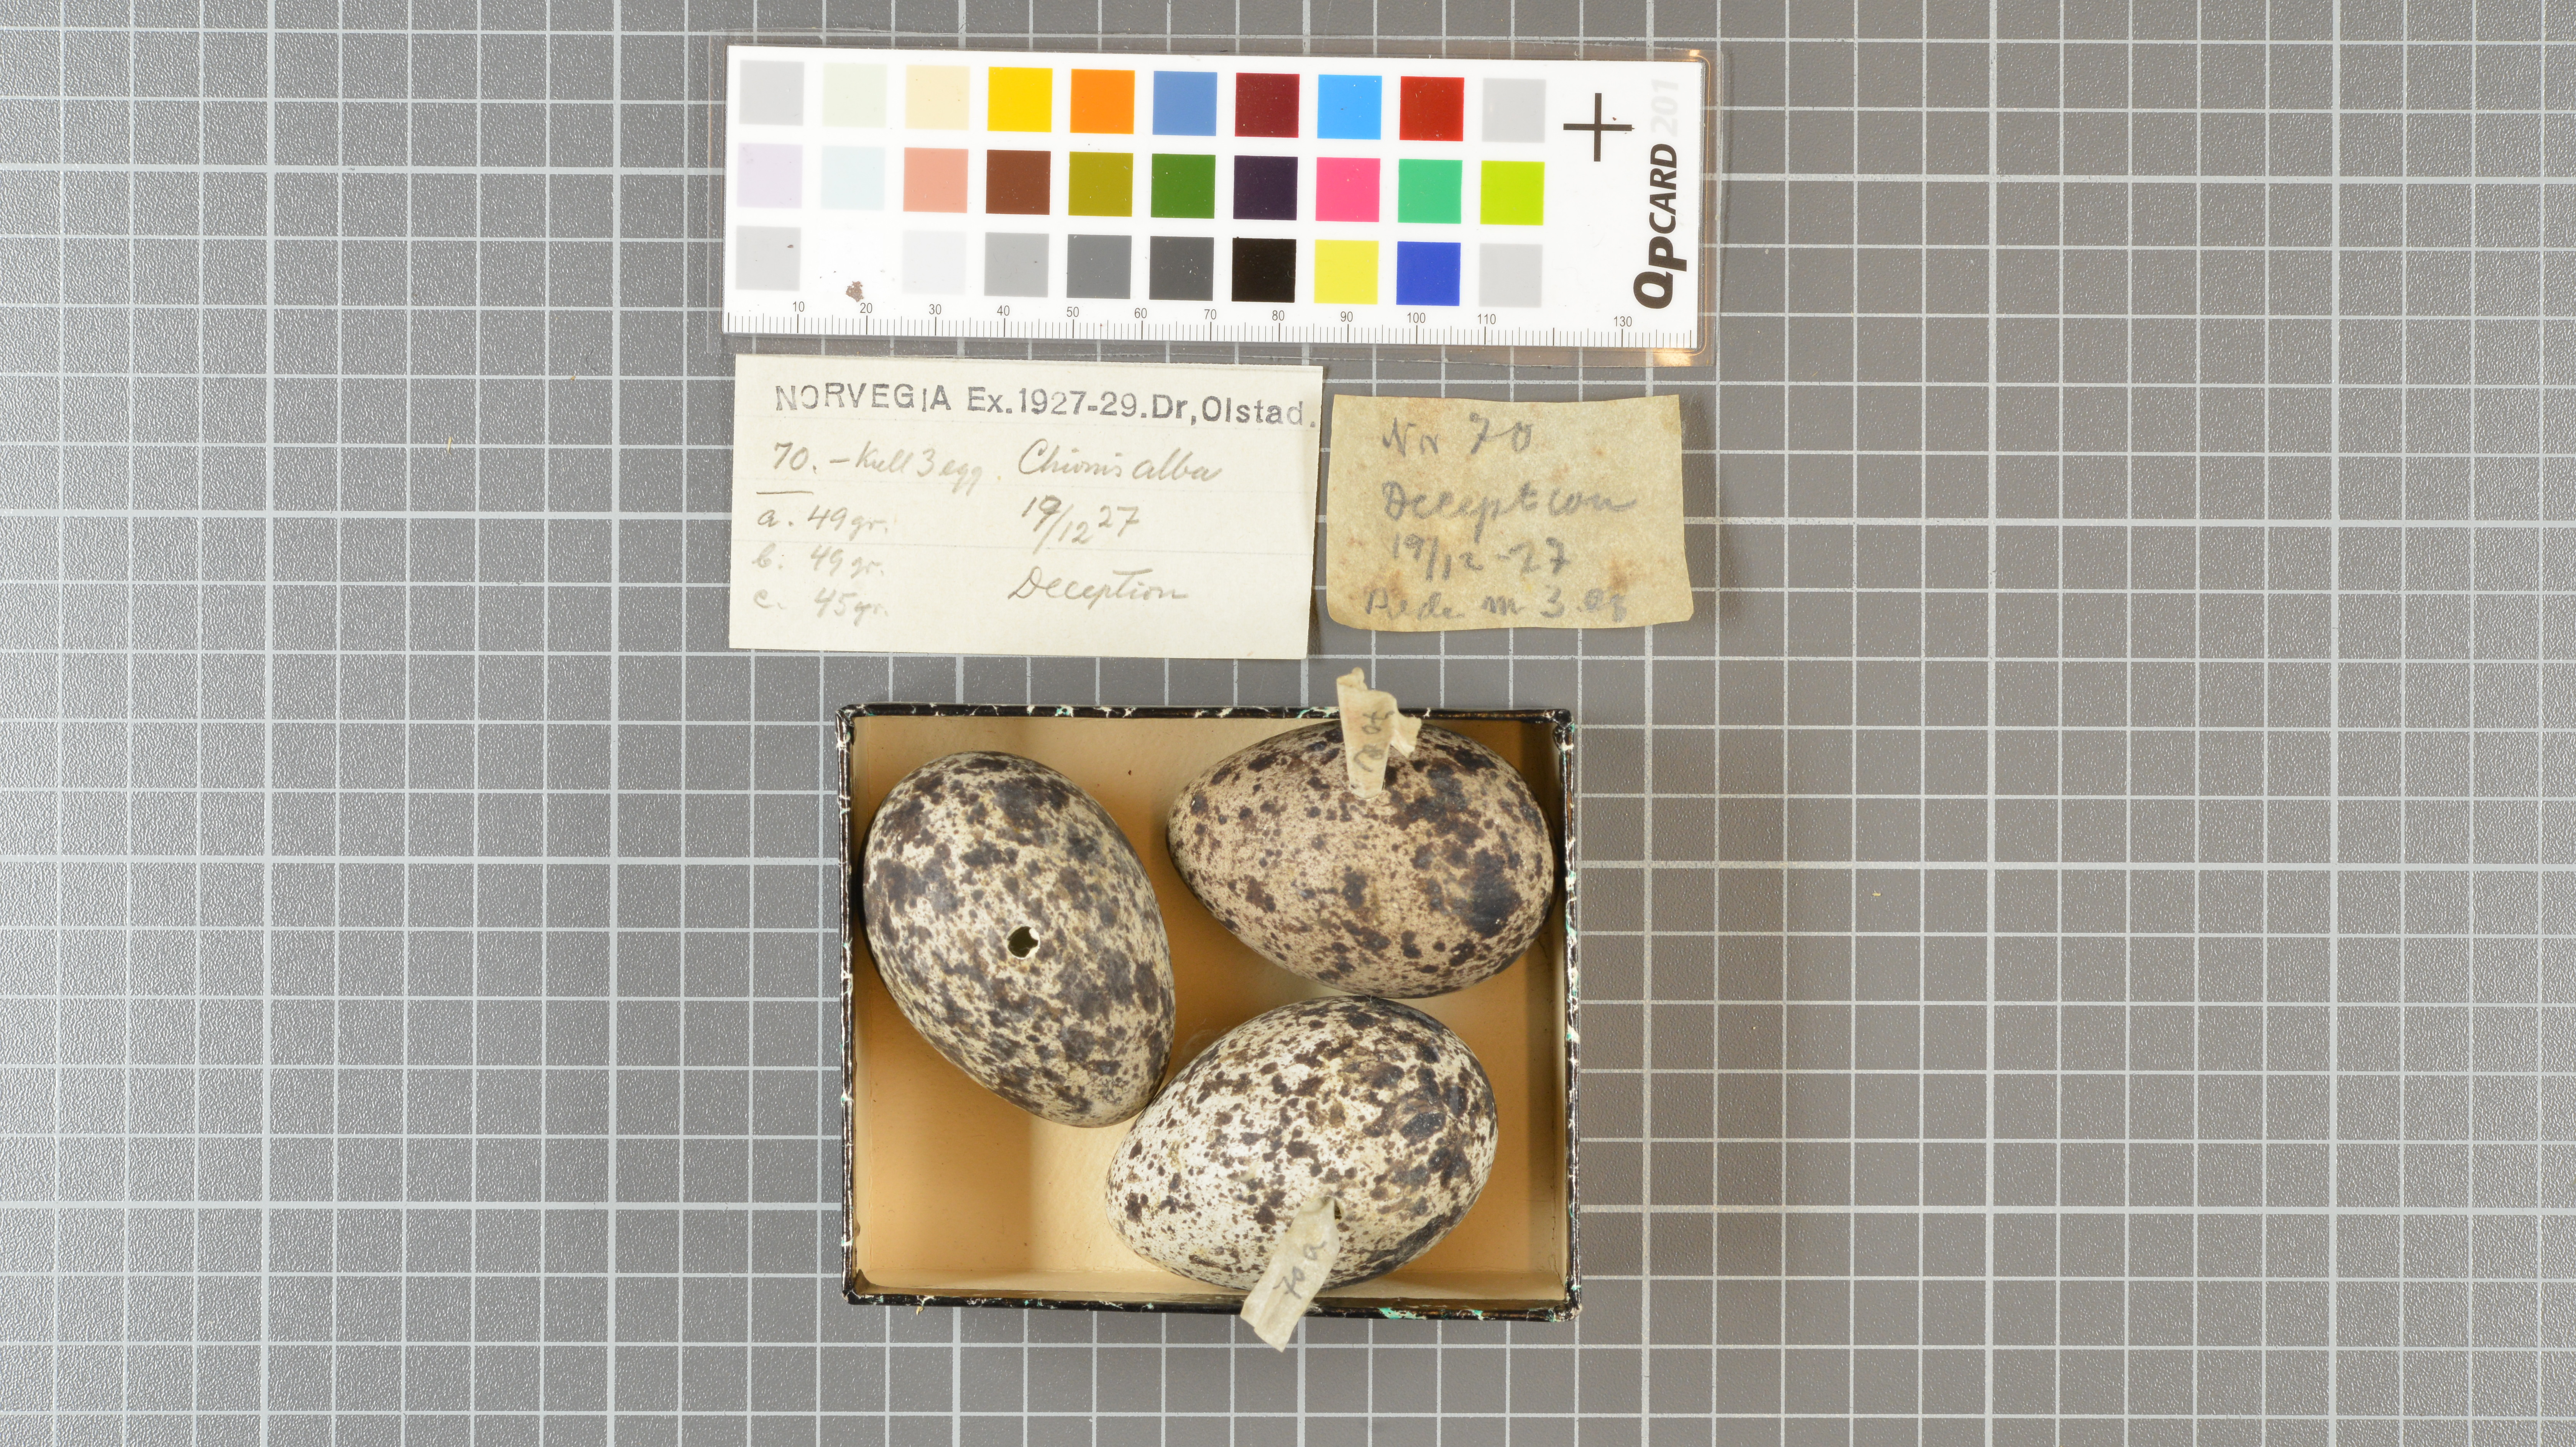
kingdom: Animalia
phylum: Chordata
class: Aves
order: Charadriiformes
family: Chionidae
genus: Chionis
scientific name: Chionis albus
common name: Snowy sheathbill
